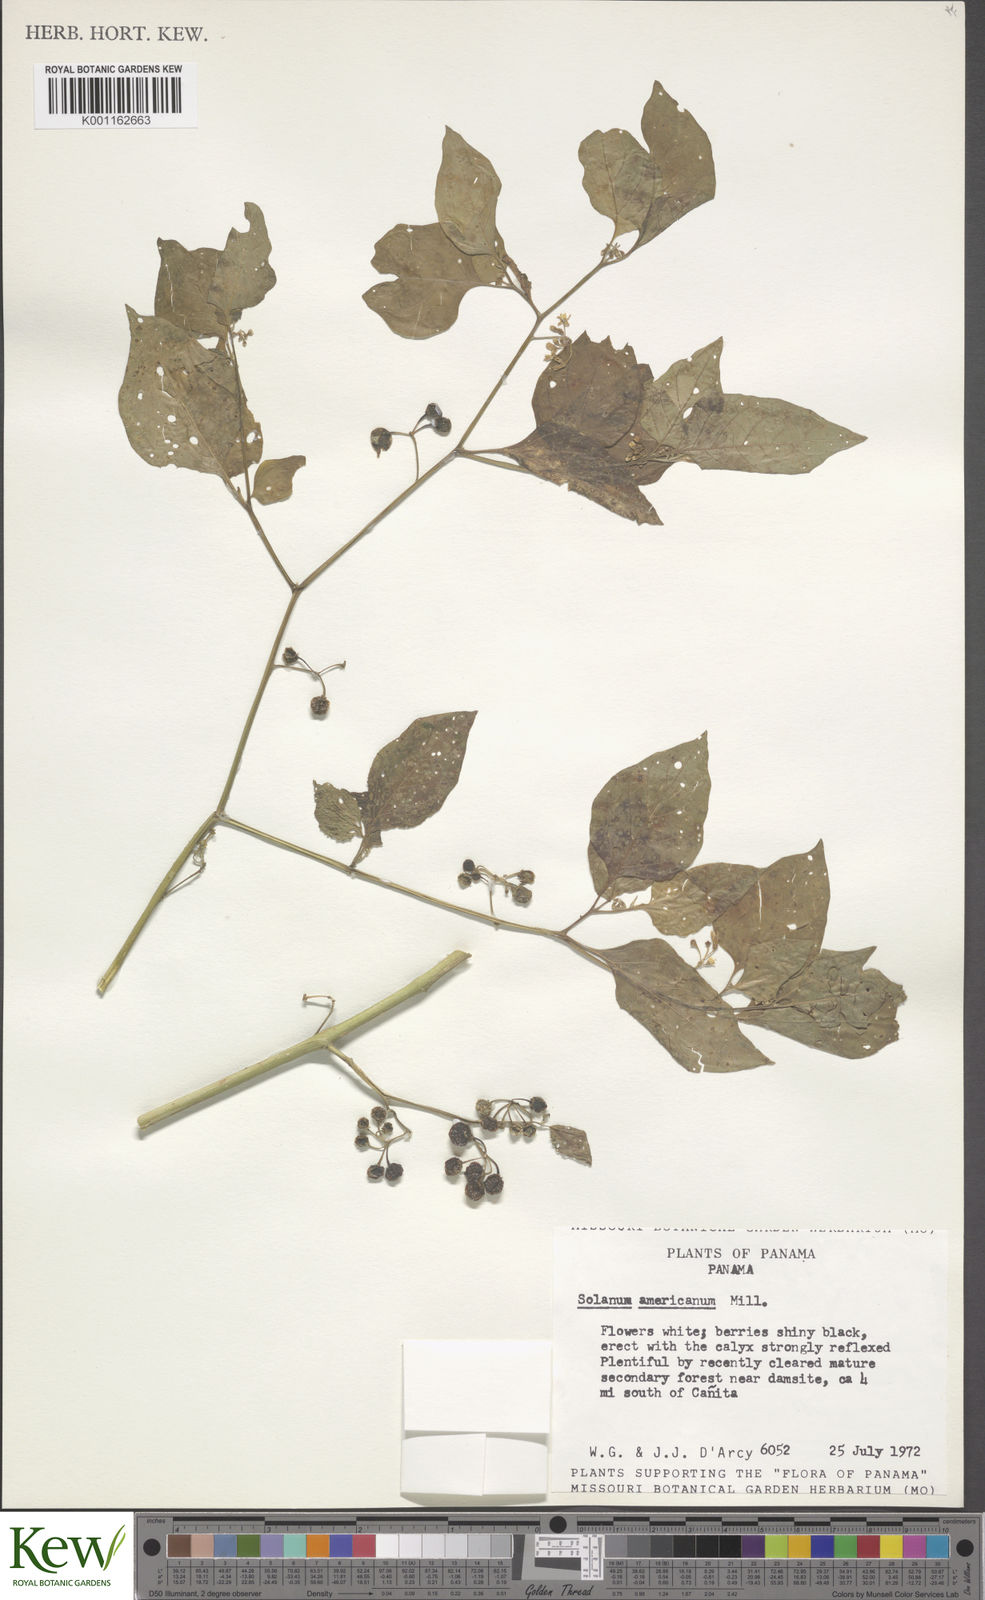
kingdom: Plantae
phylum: Tracheophyta
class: Magnoliopsida
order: Solanales
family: Solanaceae
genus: Solanum
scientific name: Solanum americanum
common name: American black nightshade
